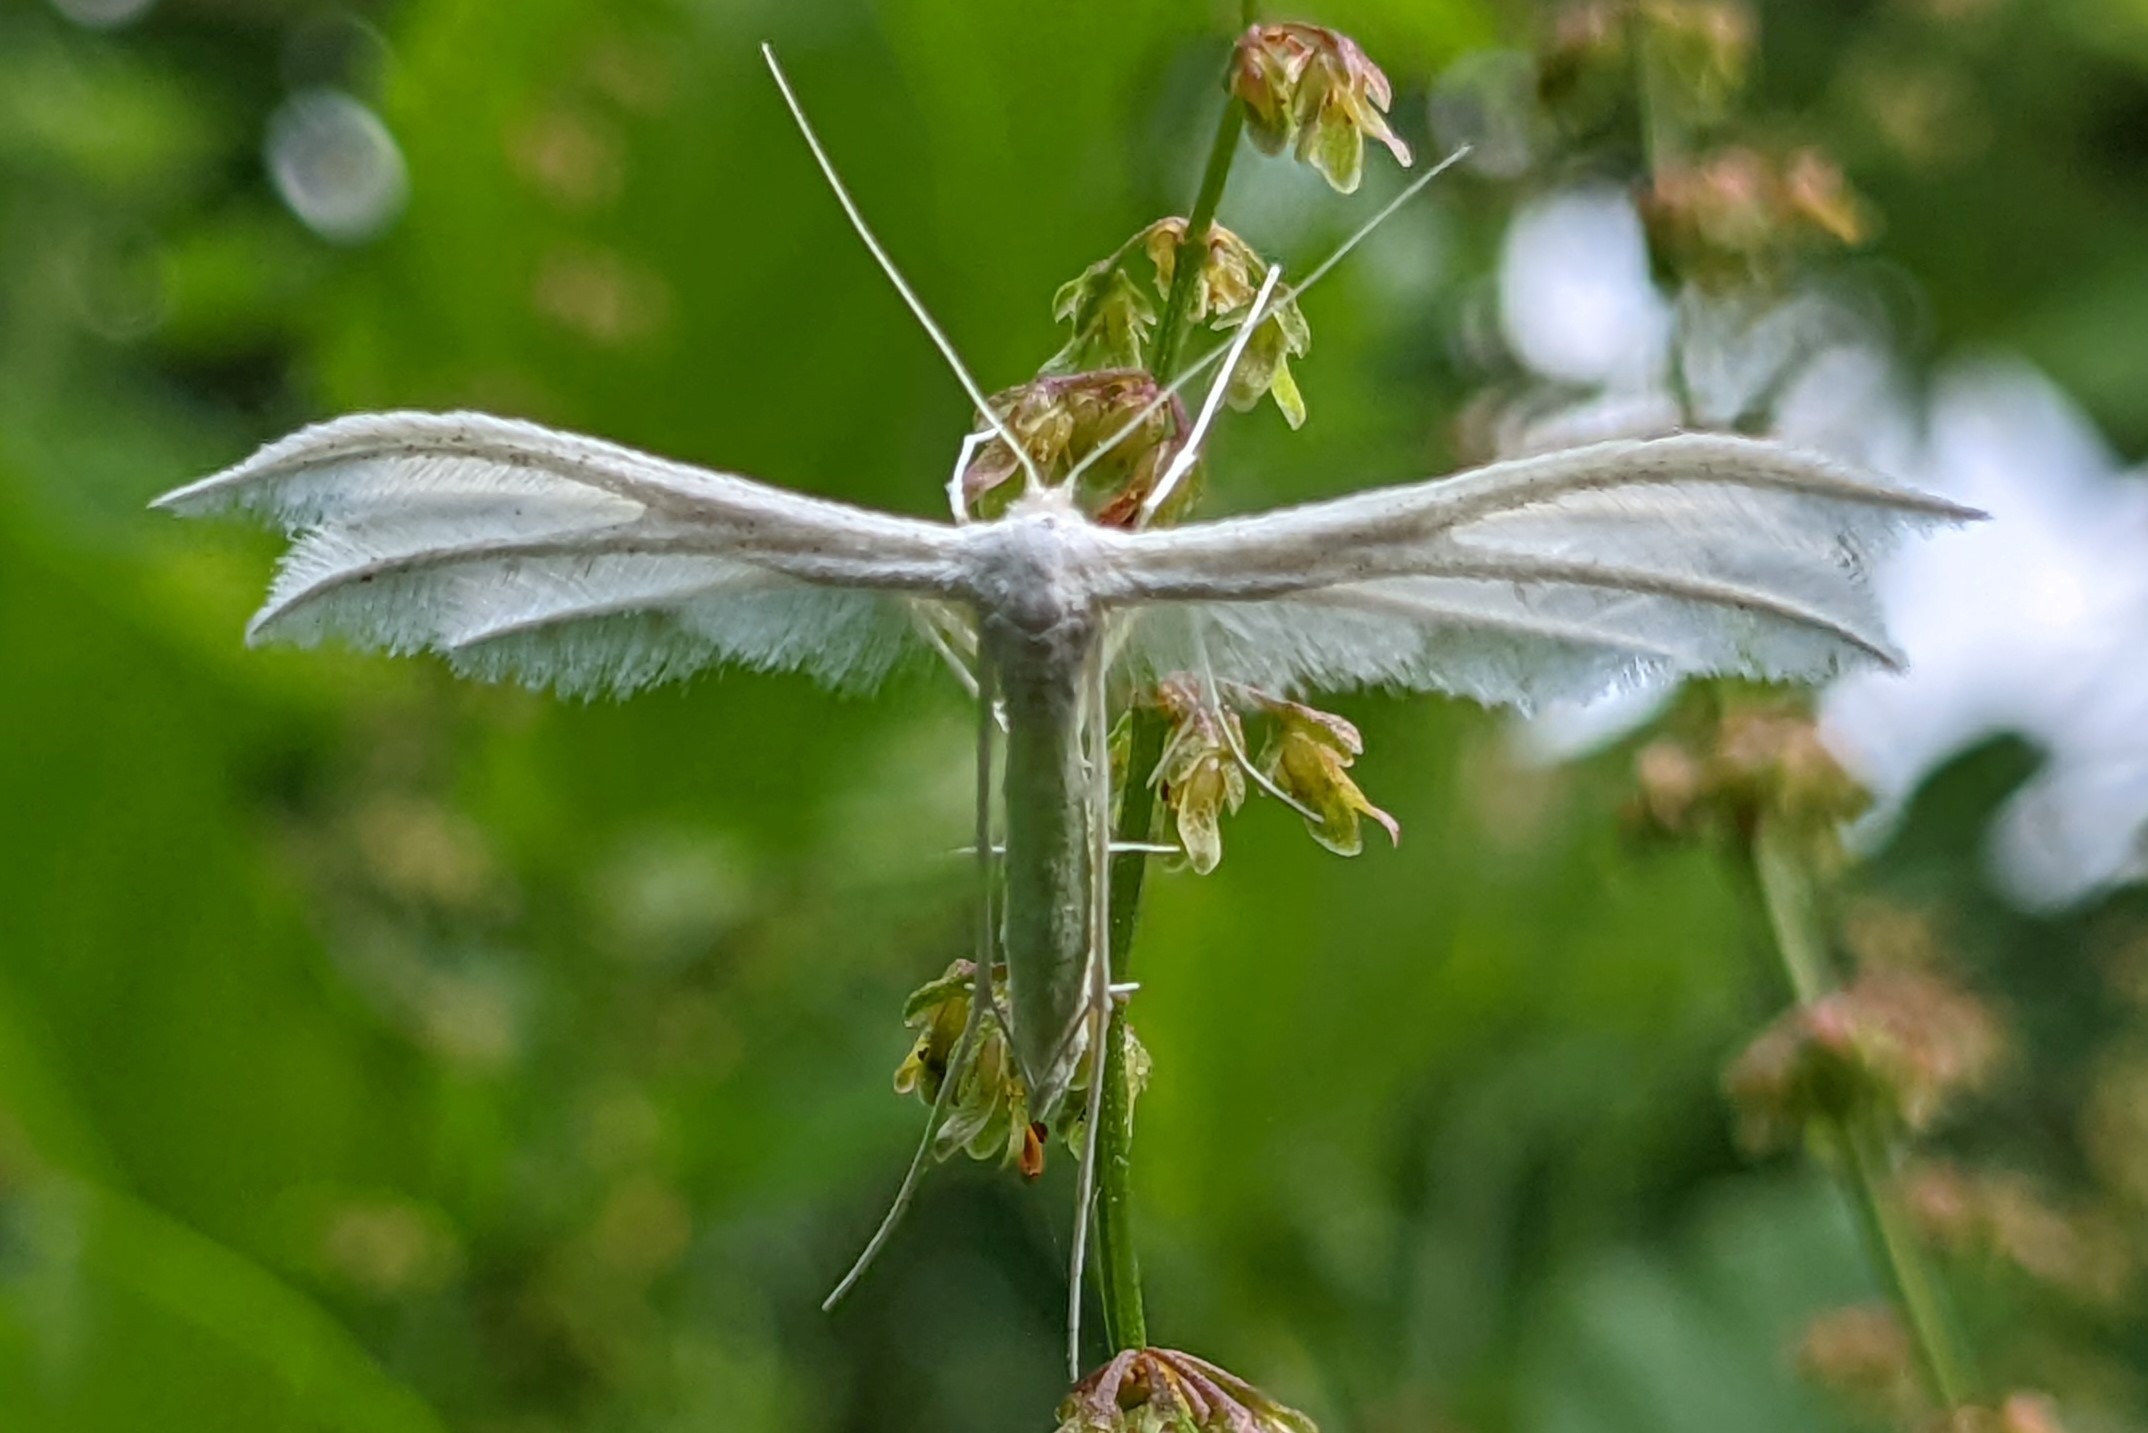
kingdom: Animalia
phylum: Arthropoda
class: Insecta
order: Lepidoptera
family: Pterophoridae
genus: Pterophorus
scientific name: Pterophorus pentadactyla
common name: Hvidt fjermøl
